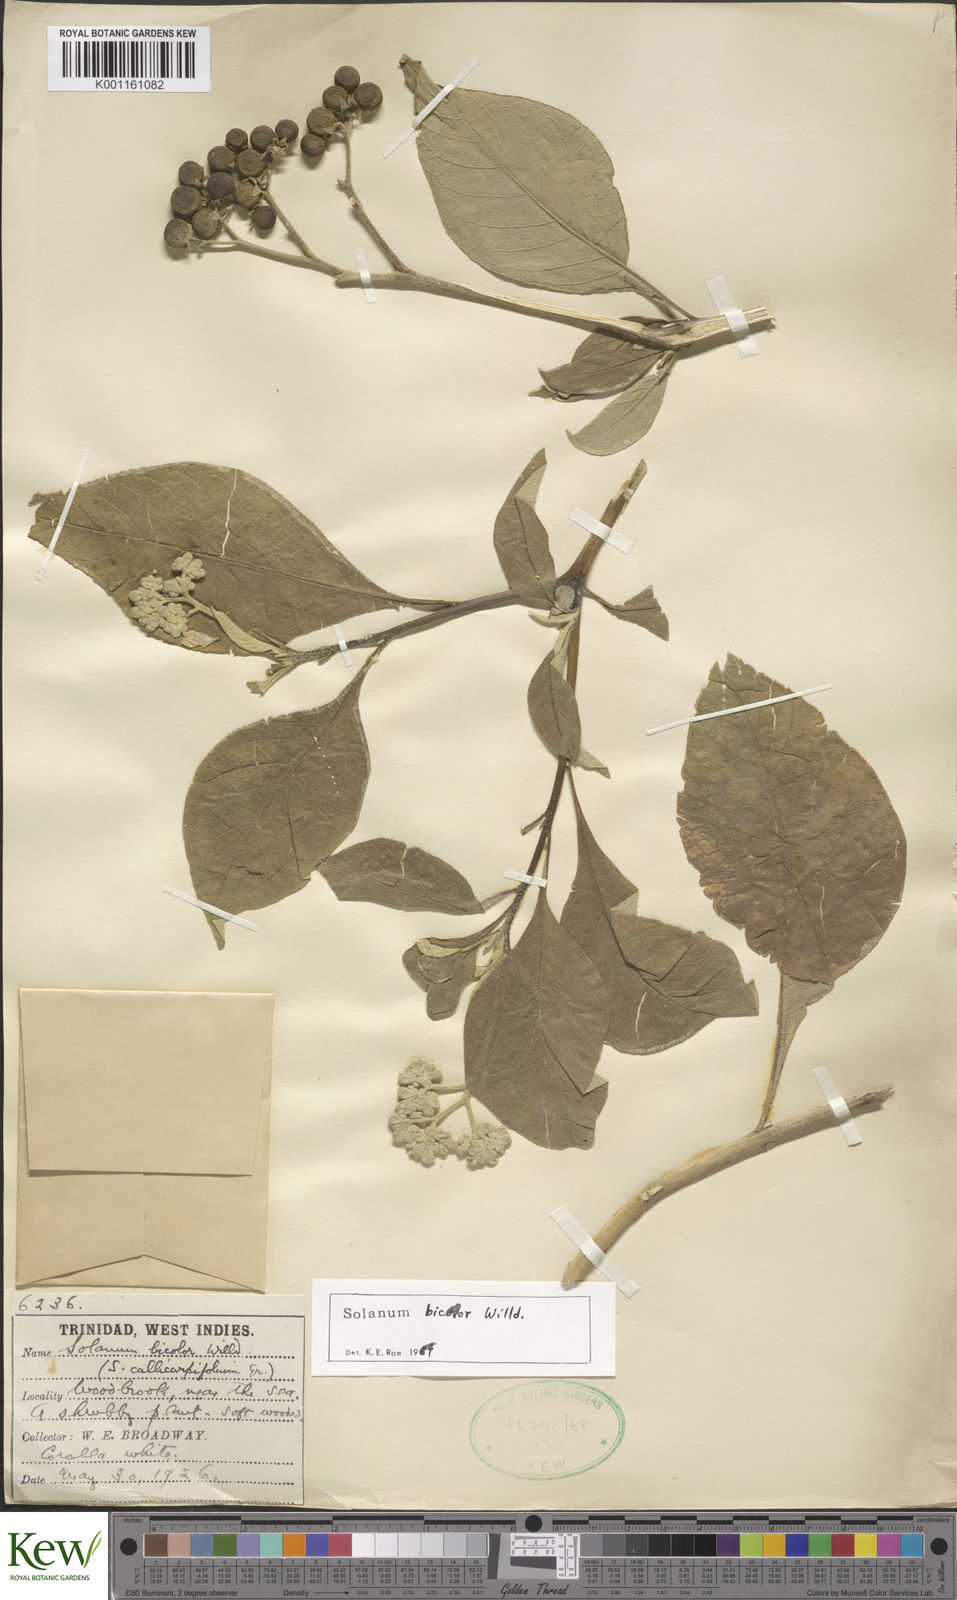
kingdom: Plantae
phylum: Tracheophyta
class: Magnoliopsida
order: Solanales
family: Solanaceae
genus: Solanum
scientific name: Solanum bicolor
